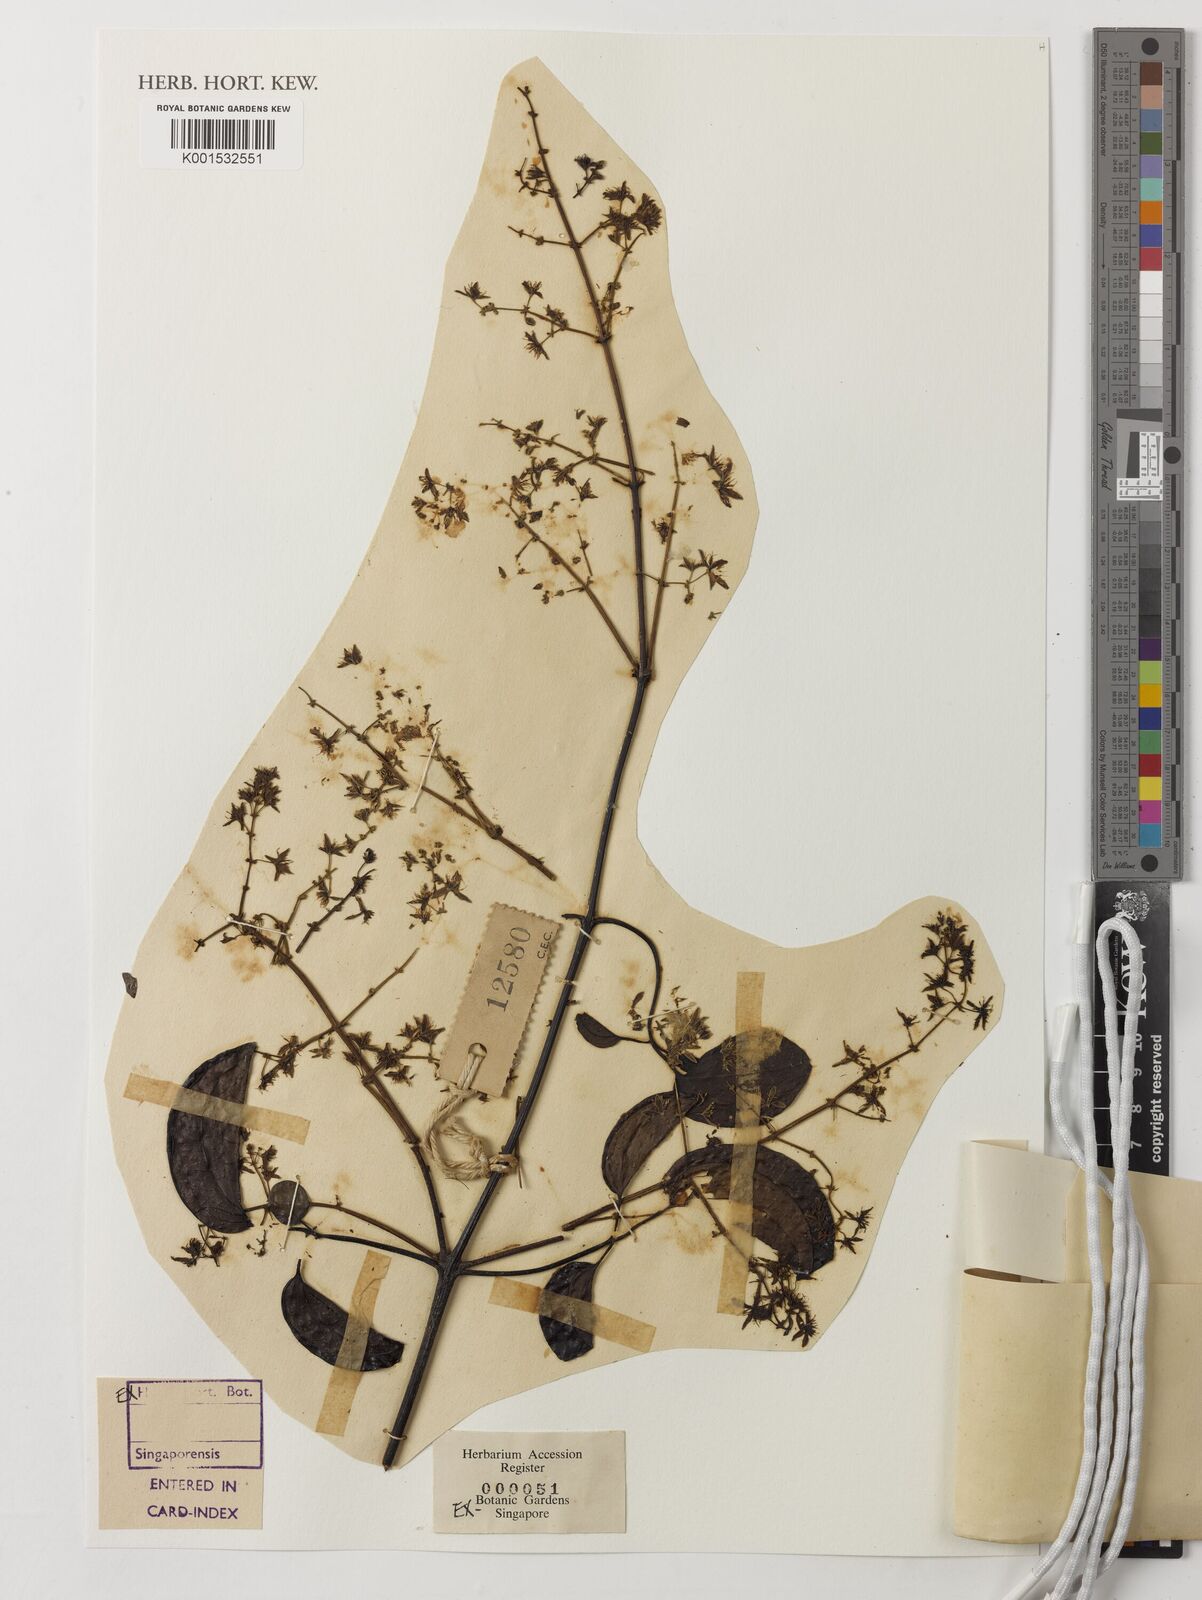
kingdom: Plantae
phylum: Tracheophyta
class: Magnoliopsida
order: Ranunculales
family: Ranunculaceae
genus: Clematis
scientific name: Clematis papuasica
